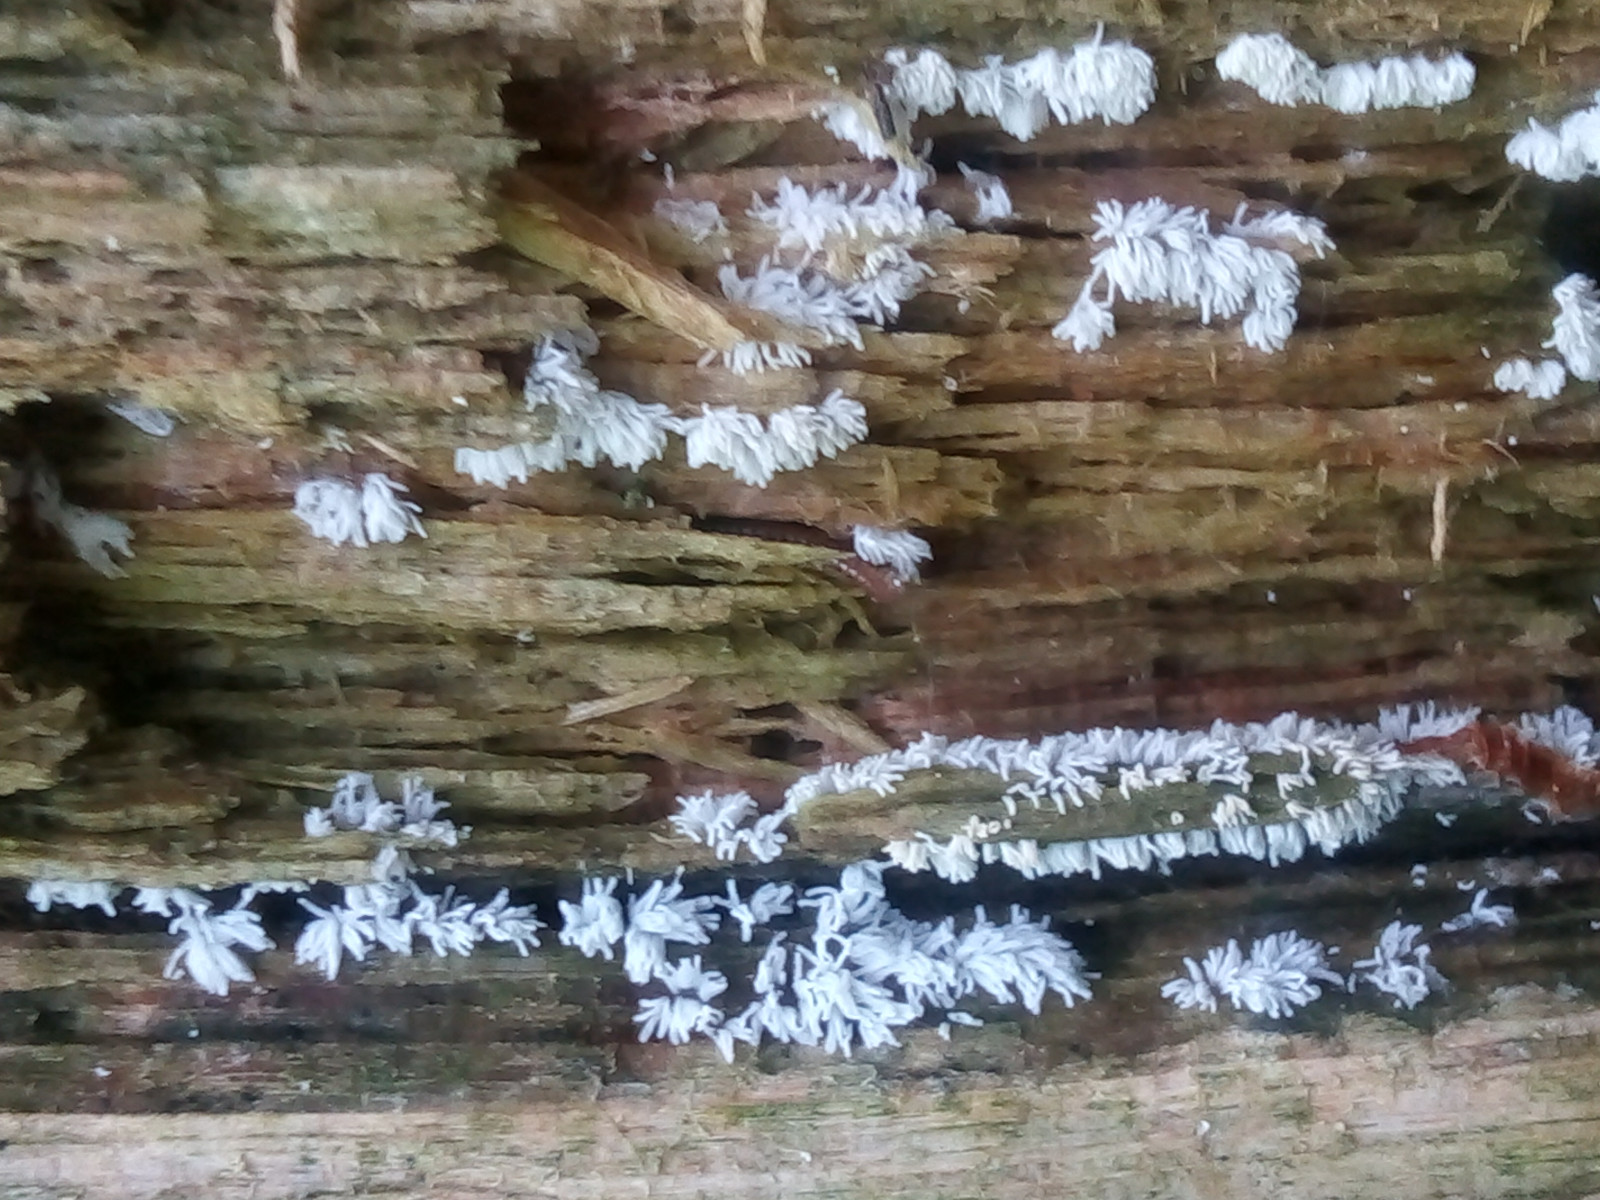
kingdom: Protozoa
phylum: Mycetozoa
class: Protosteliomycetes
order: Ceratiomyxales
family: Ceratiomyxaceae
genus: Ceratiomyxa
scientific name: Ceratiomyxa fruticulosa
